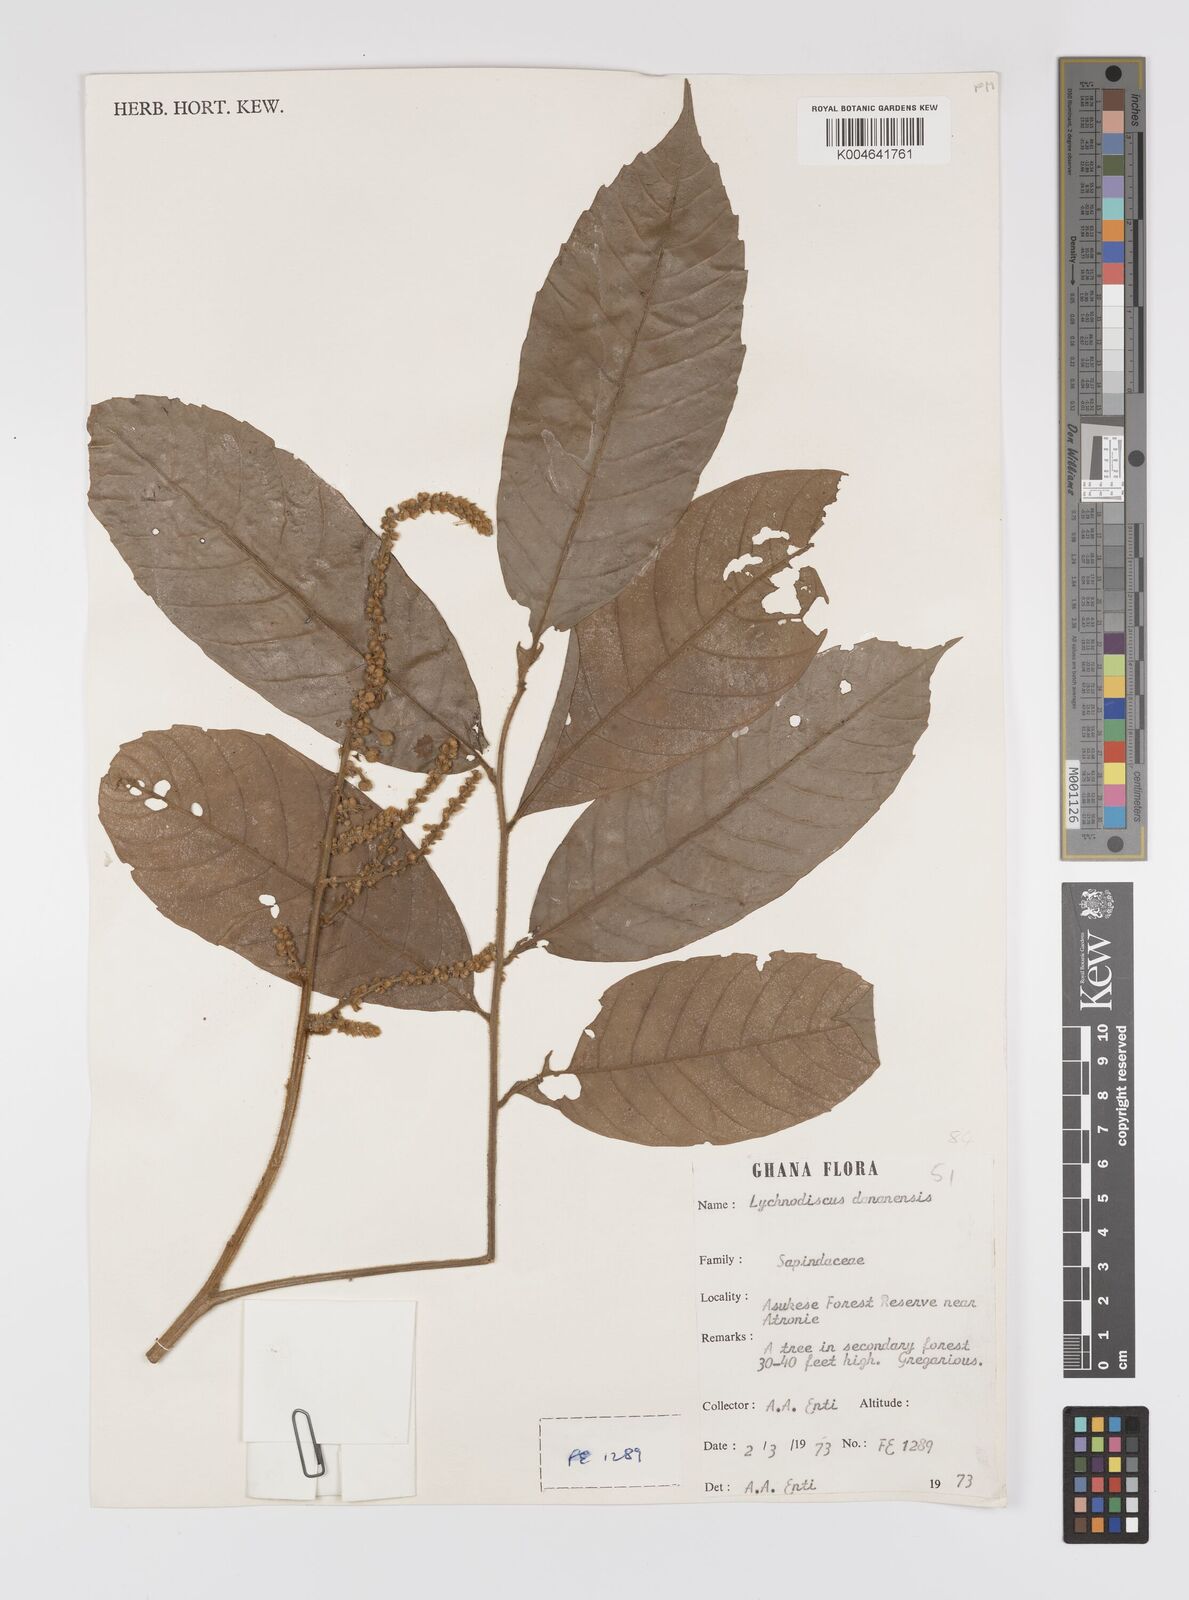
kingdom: Plantae
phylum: Tracheophyta
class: Magnoliopsida
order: Sapindales
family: Sapindaceae
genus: Lychnodiscus
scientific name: Lychnodiscus dananensis
